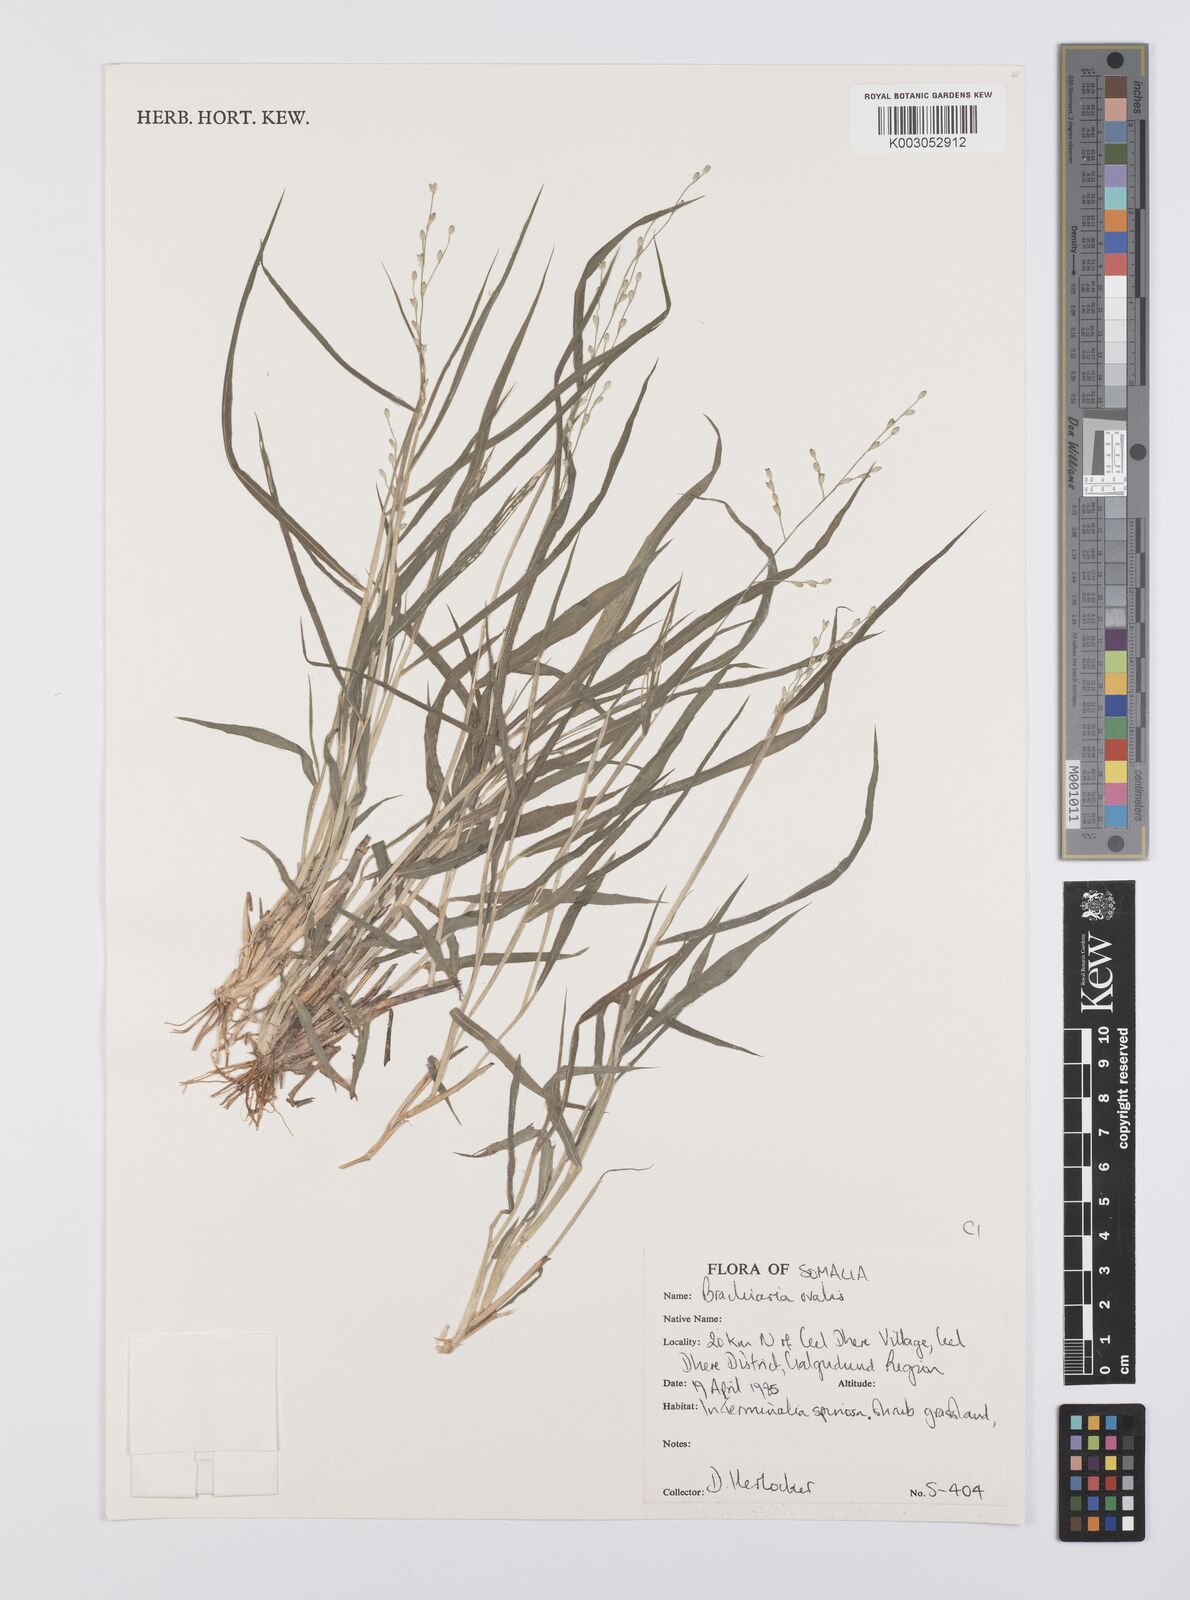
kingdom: Plantae
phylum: Tracheophyta
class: Liliopsida
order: Poales
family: Poaceae
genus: Urochloa
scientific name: Urochloa ovalis
